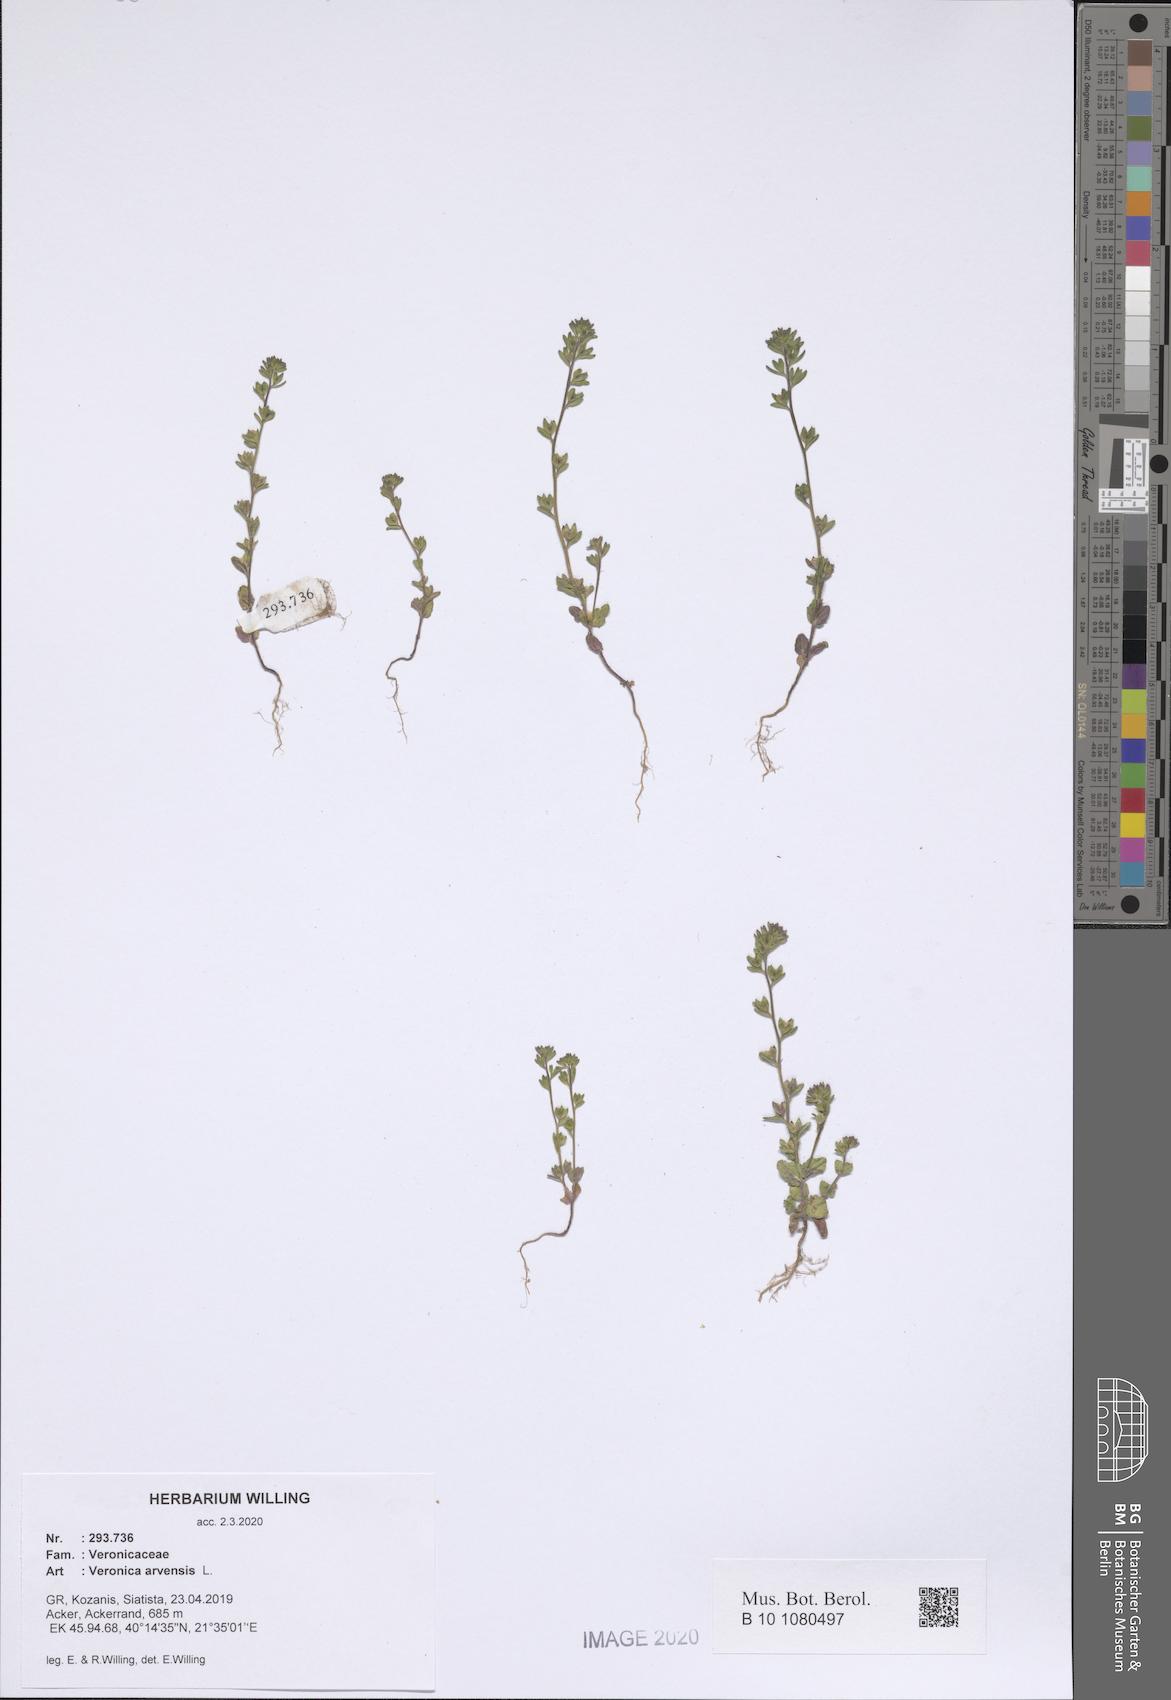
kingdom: Plantae
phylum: Tracheophyta
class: Magnoliopsida
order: Lamiales
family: Plantaginaceae
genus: Veronica
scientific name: Veronica arvensis
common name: Corn speedwell
